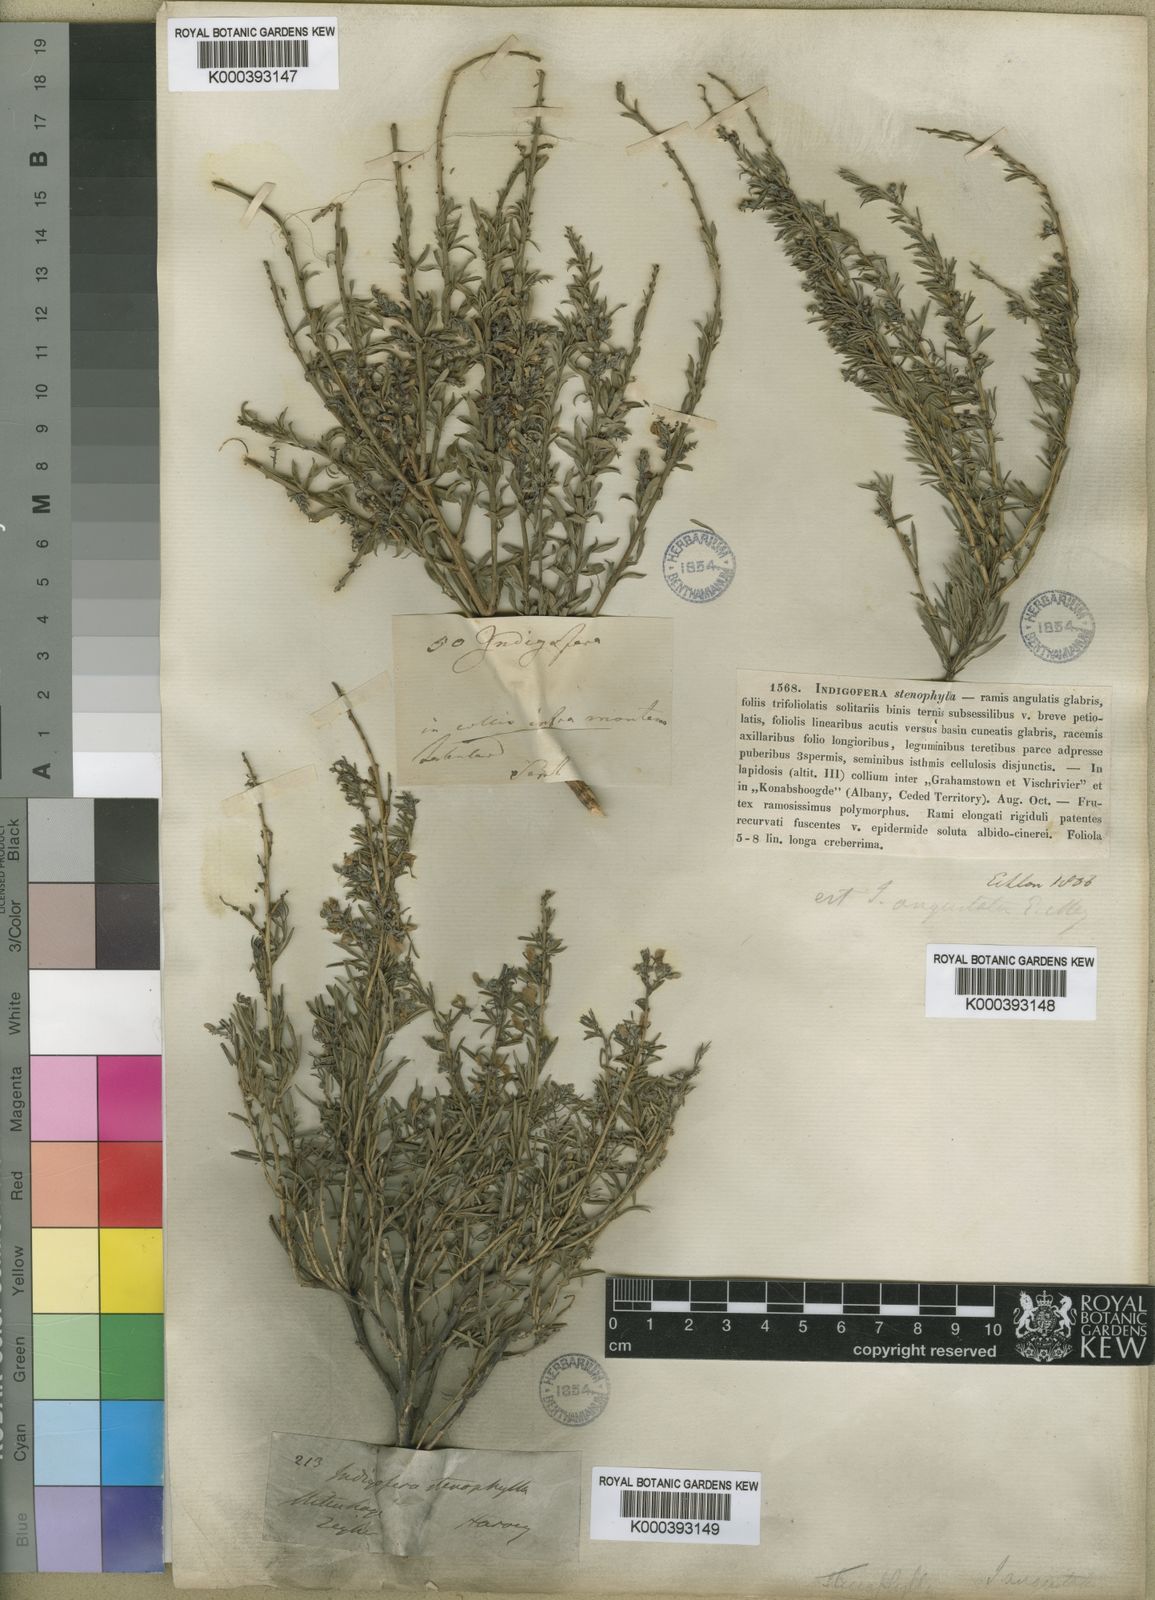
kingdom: Plantae
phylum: Tracheophyta
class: Magnoliopsida
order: Fabales
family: Fabaceae
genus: Indigofera
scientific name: Indigofera angustata
